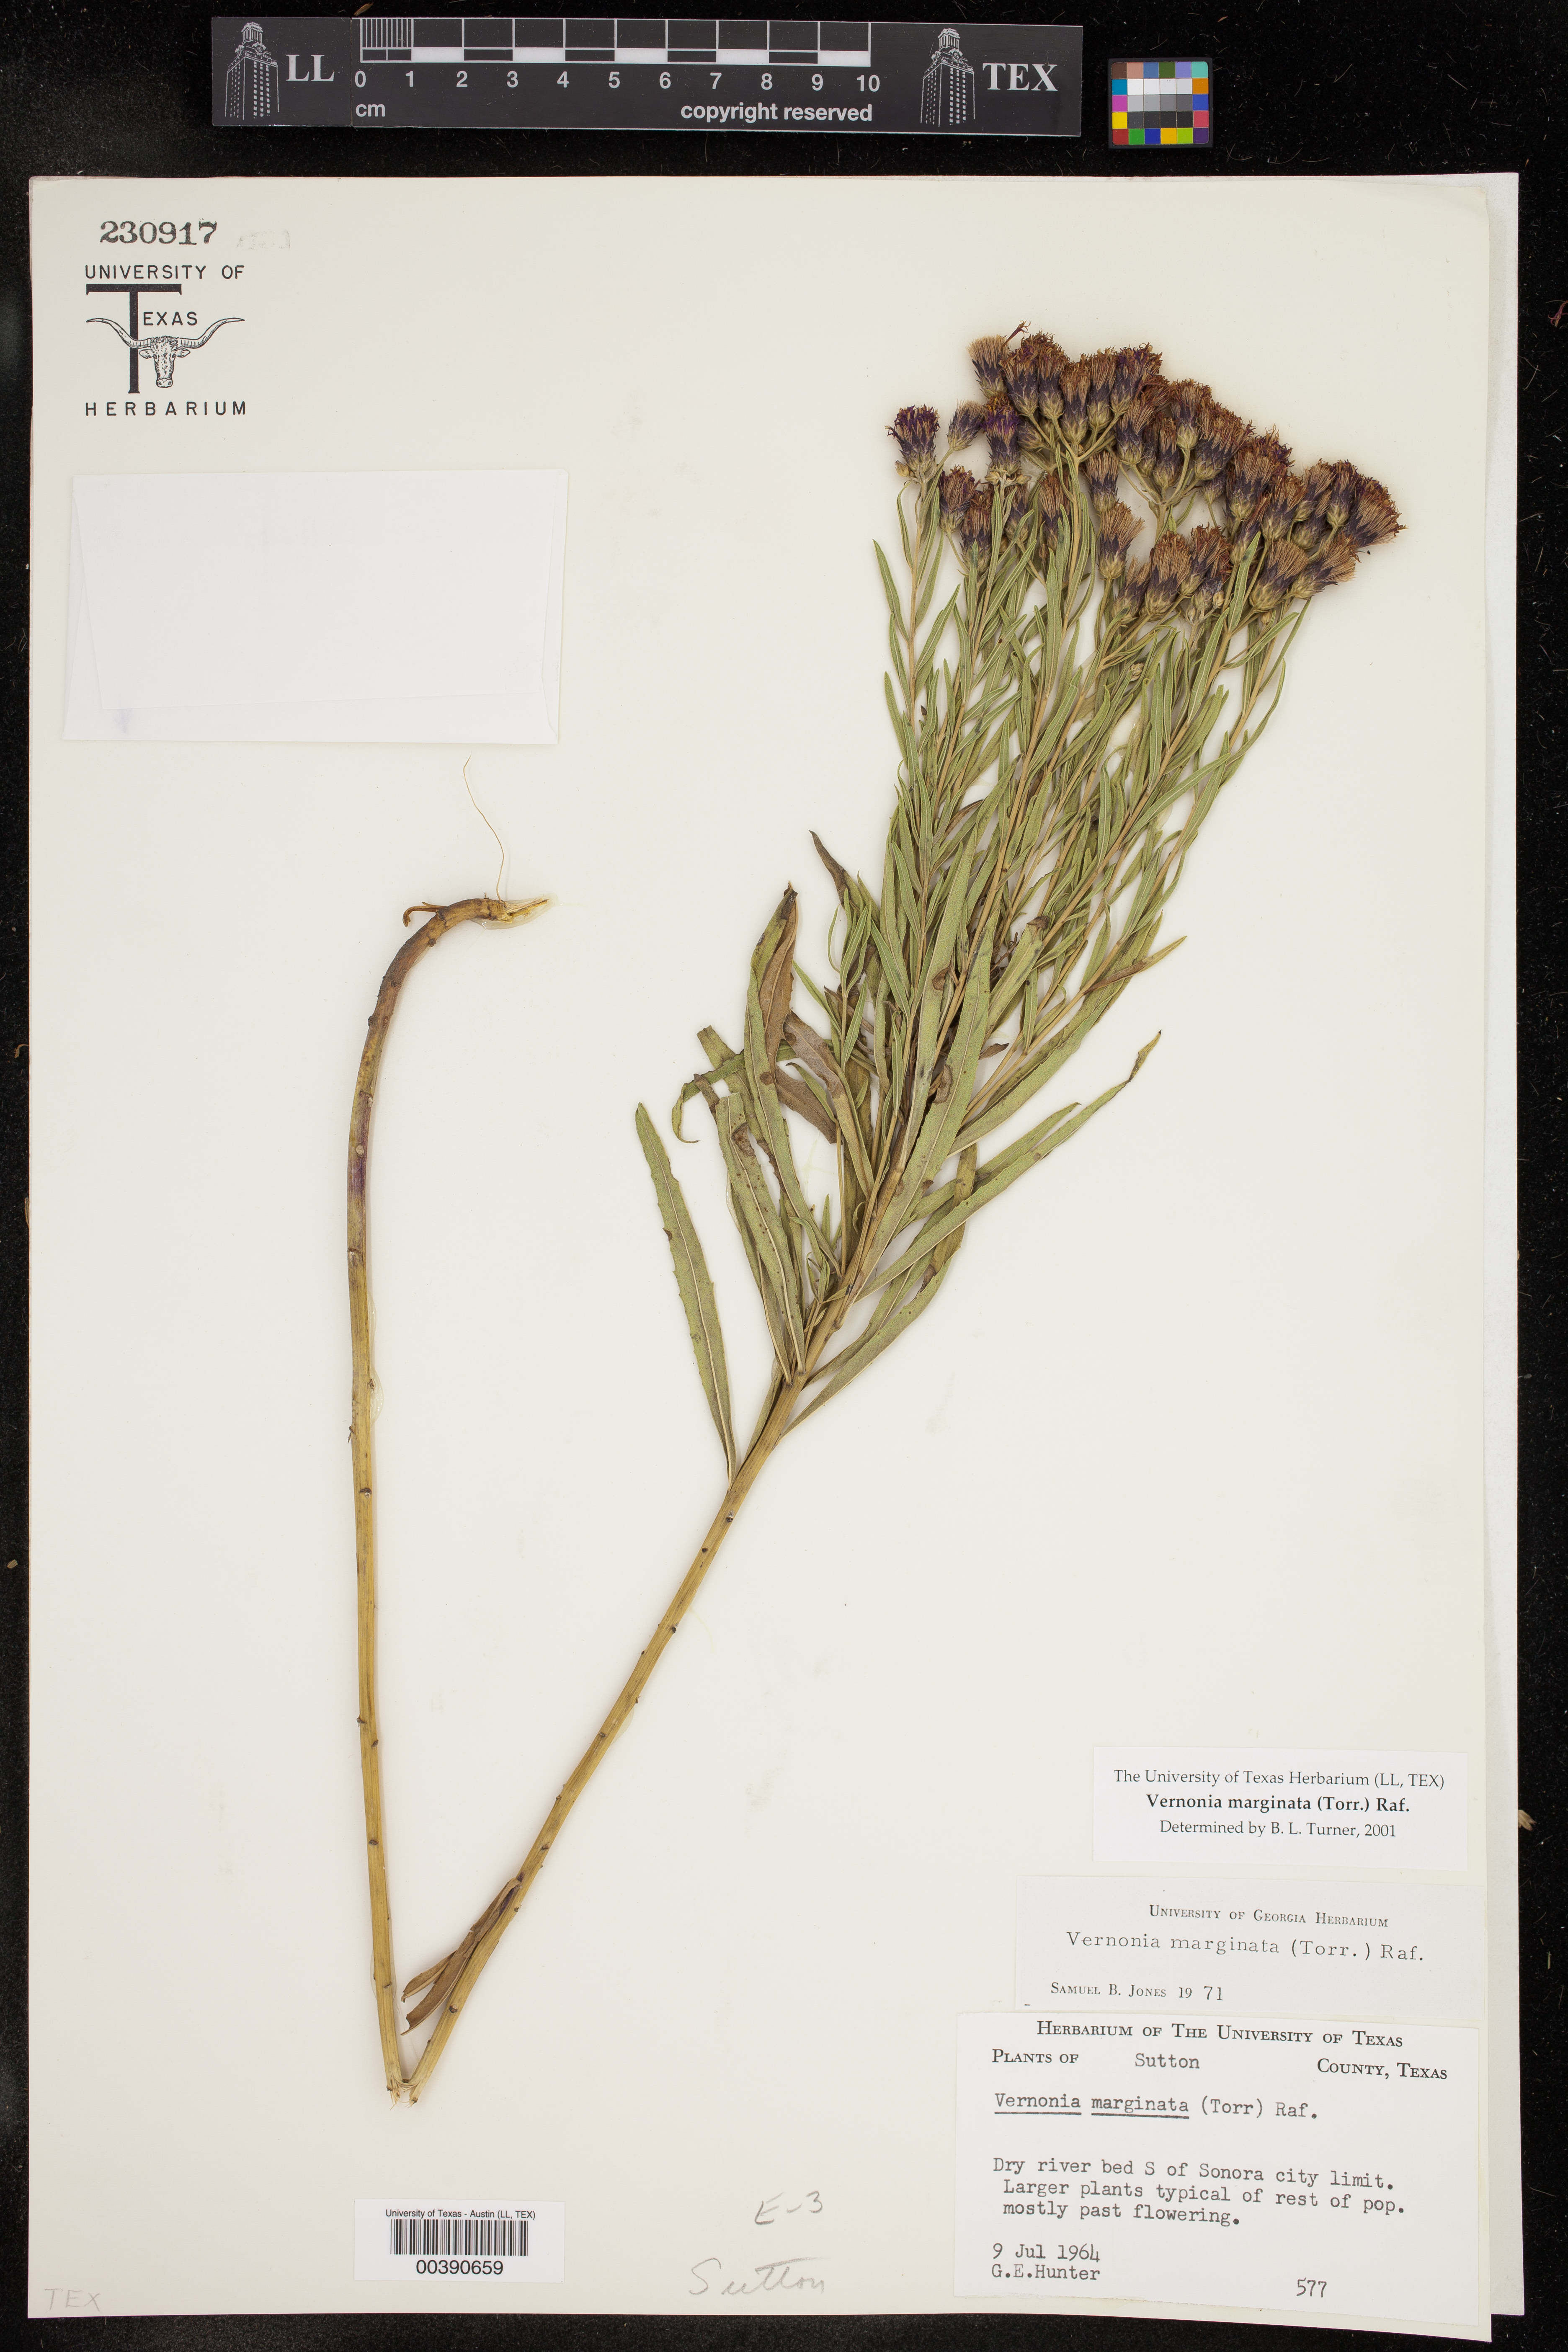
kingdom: Plantae
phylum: Tracheophyta
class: Magnoliopsida
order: Asterales
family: Asteraceae
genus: Vernonia
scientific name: Vernonia marginata
